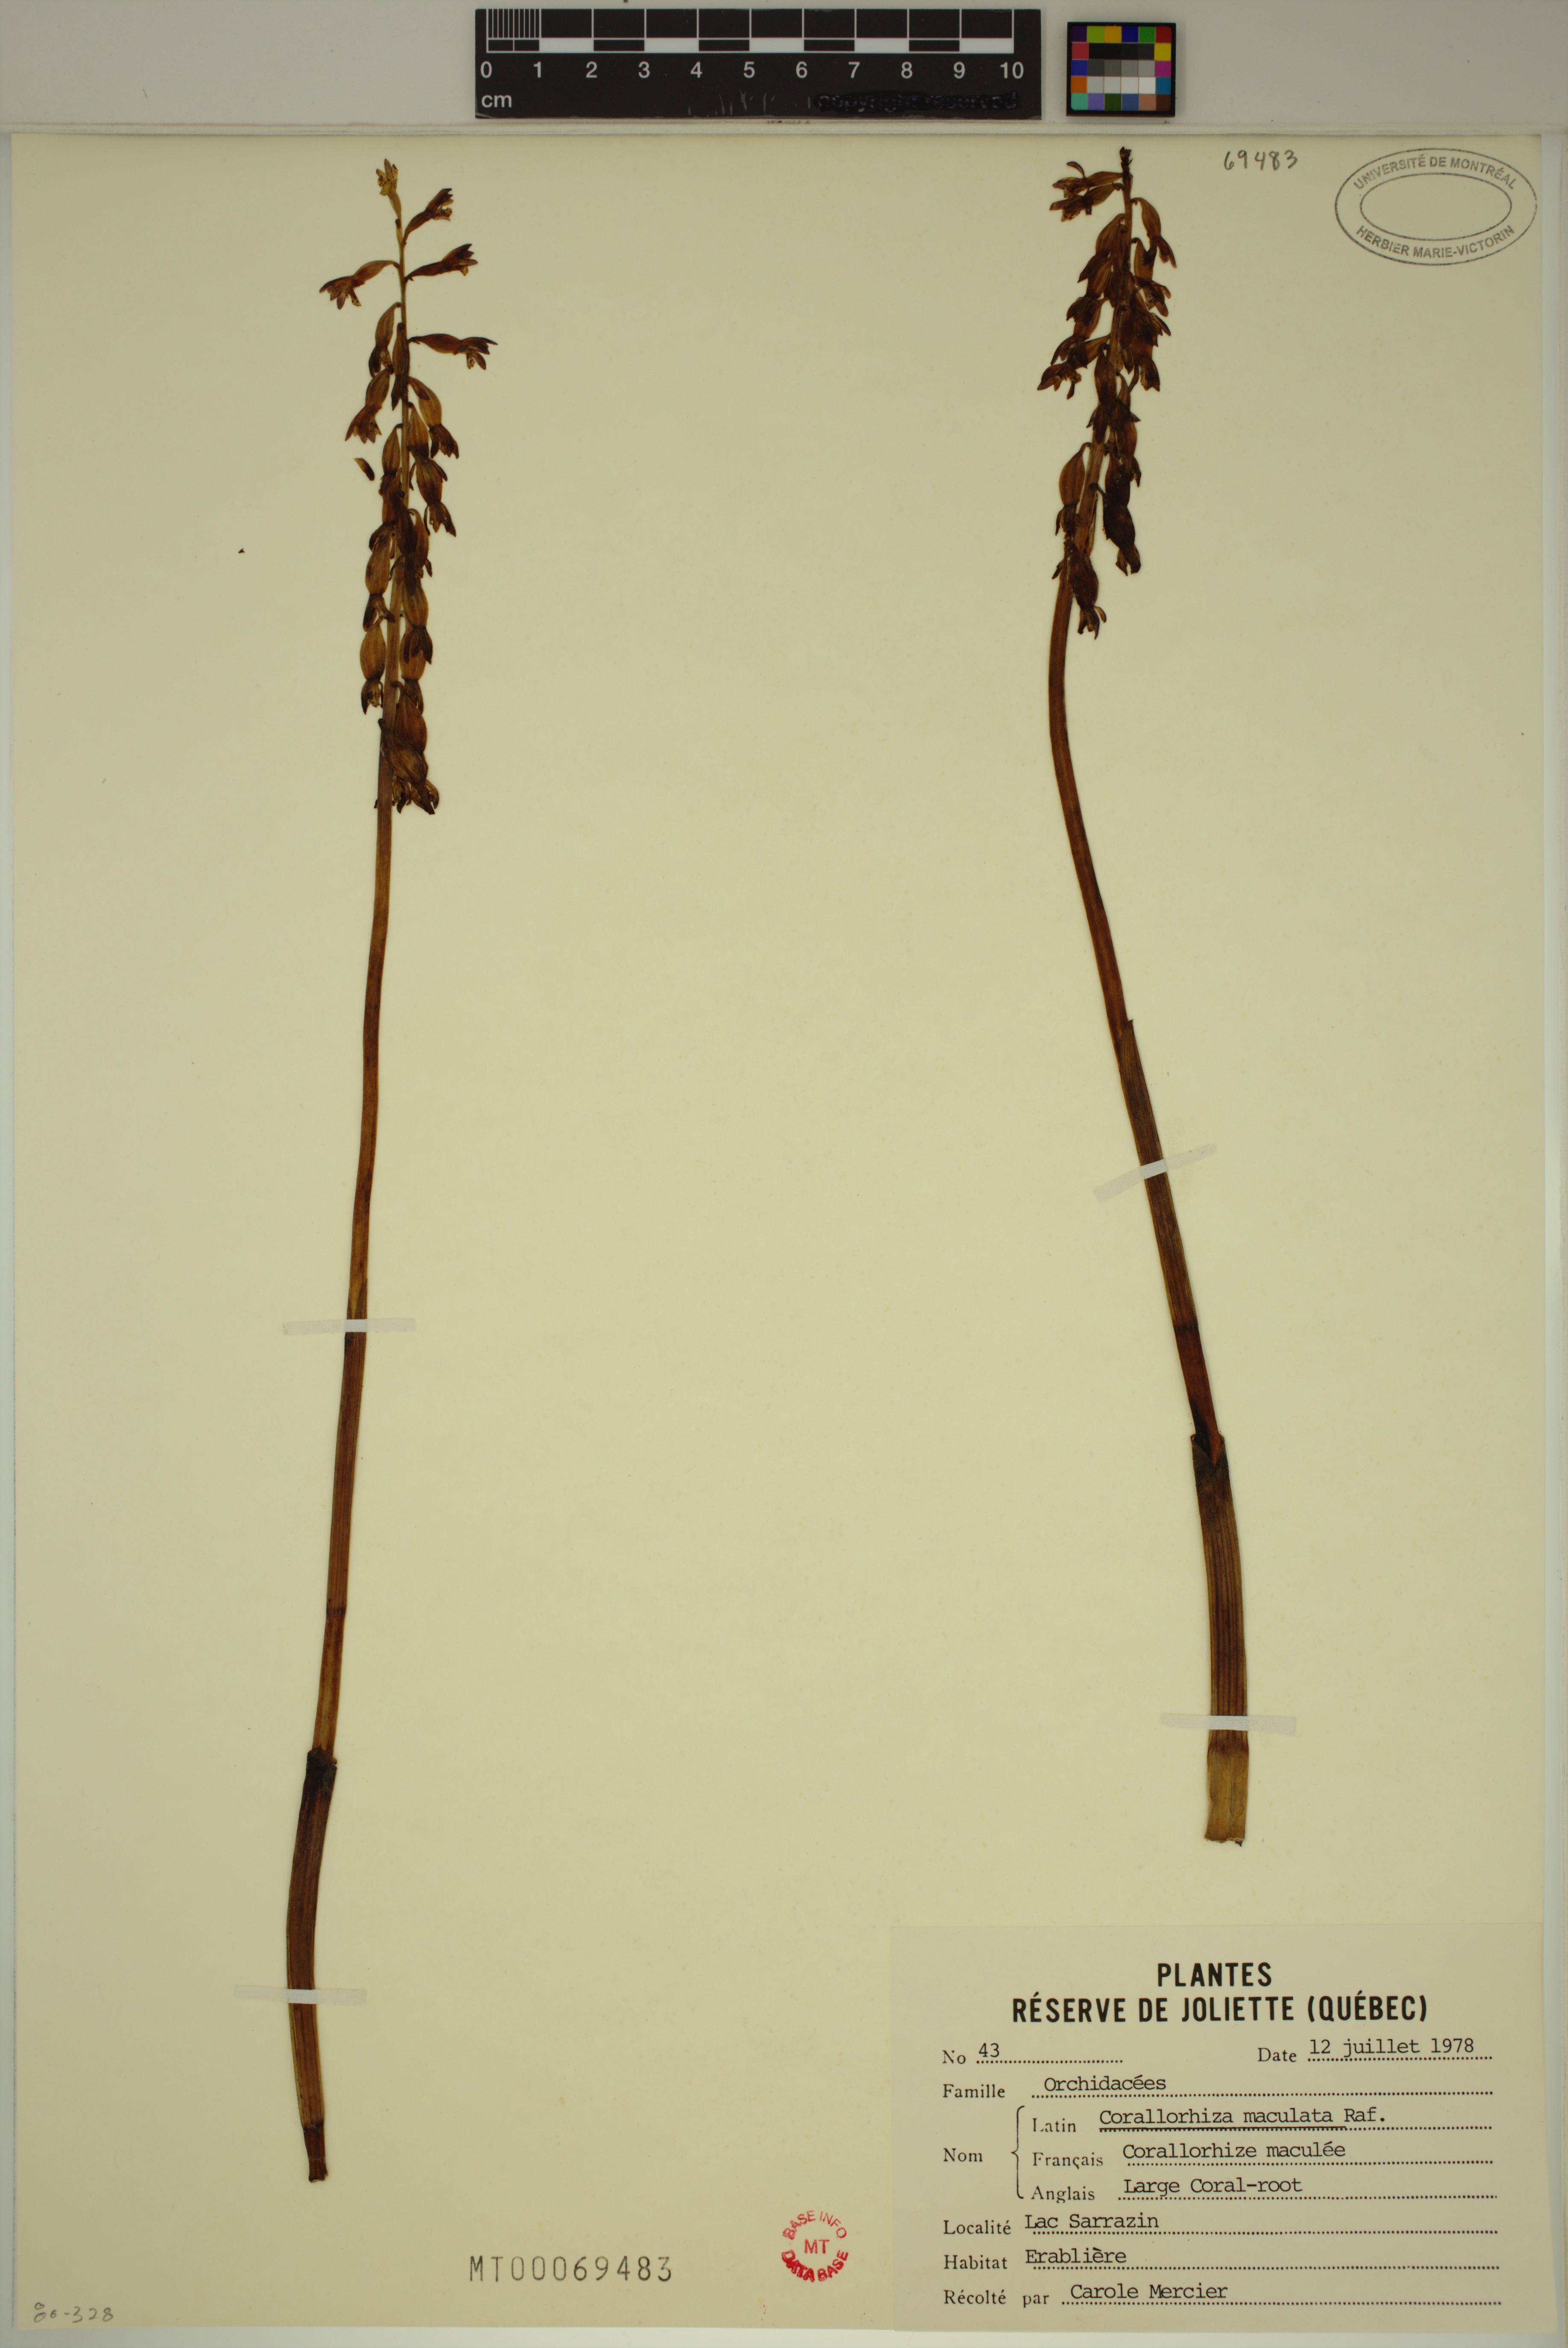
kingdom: Plantae
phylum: Tracheophyta
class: Liliopsida
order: Asparagales
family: Orchidaceae
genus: Corallorhiza
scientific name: Corallorhiza maculata
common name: Spotted coralroot
